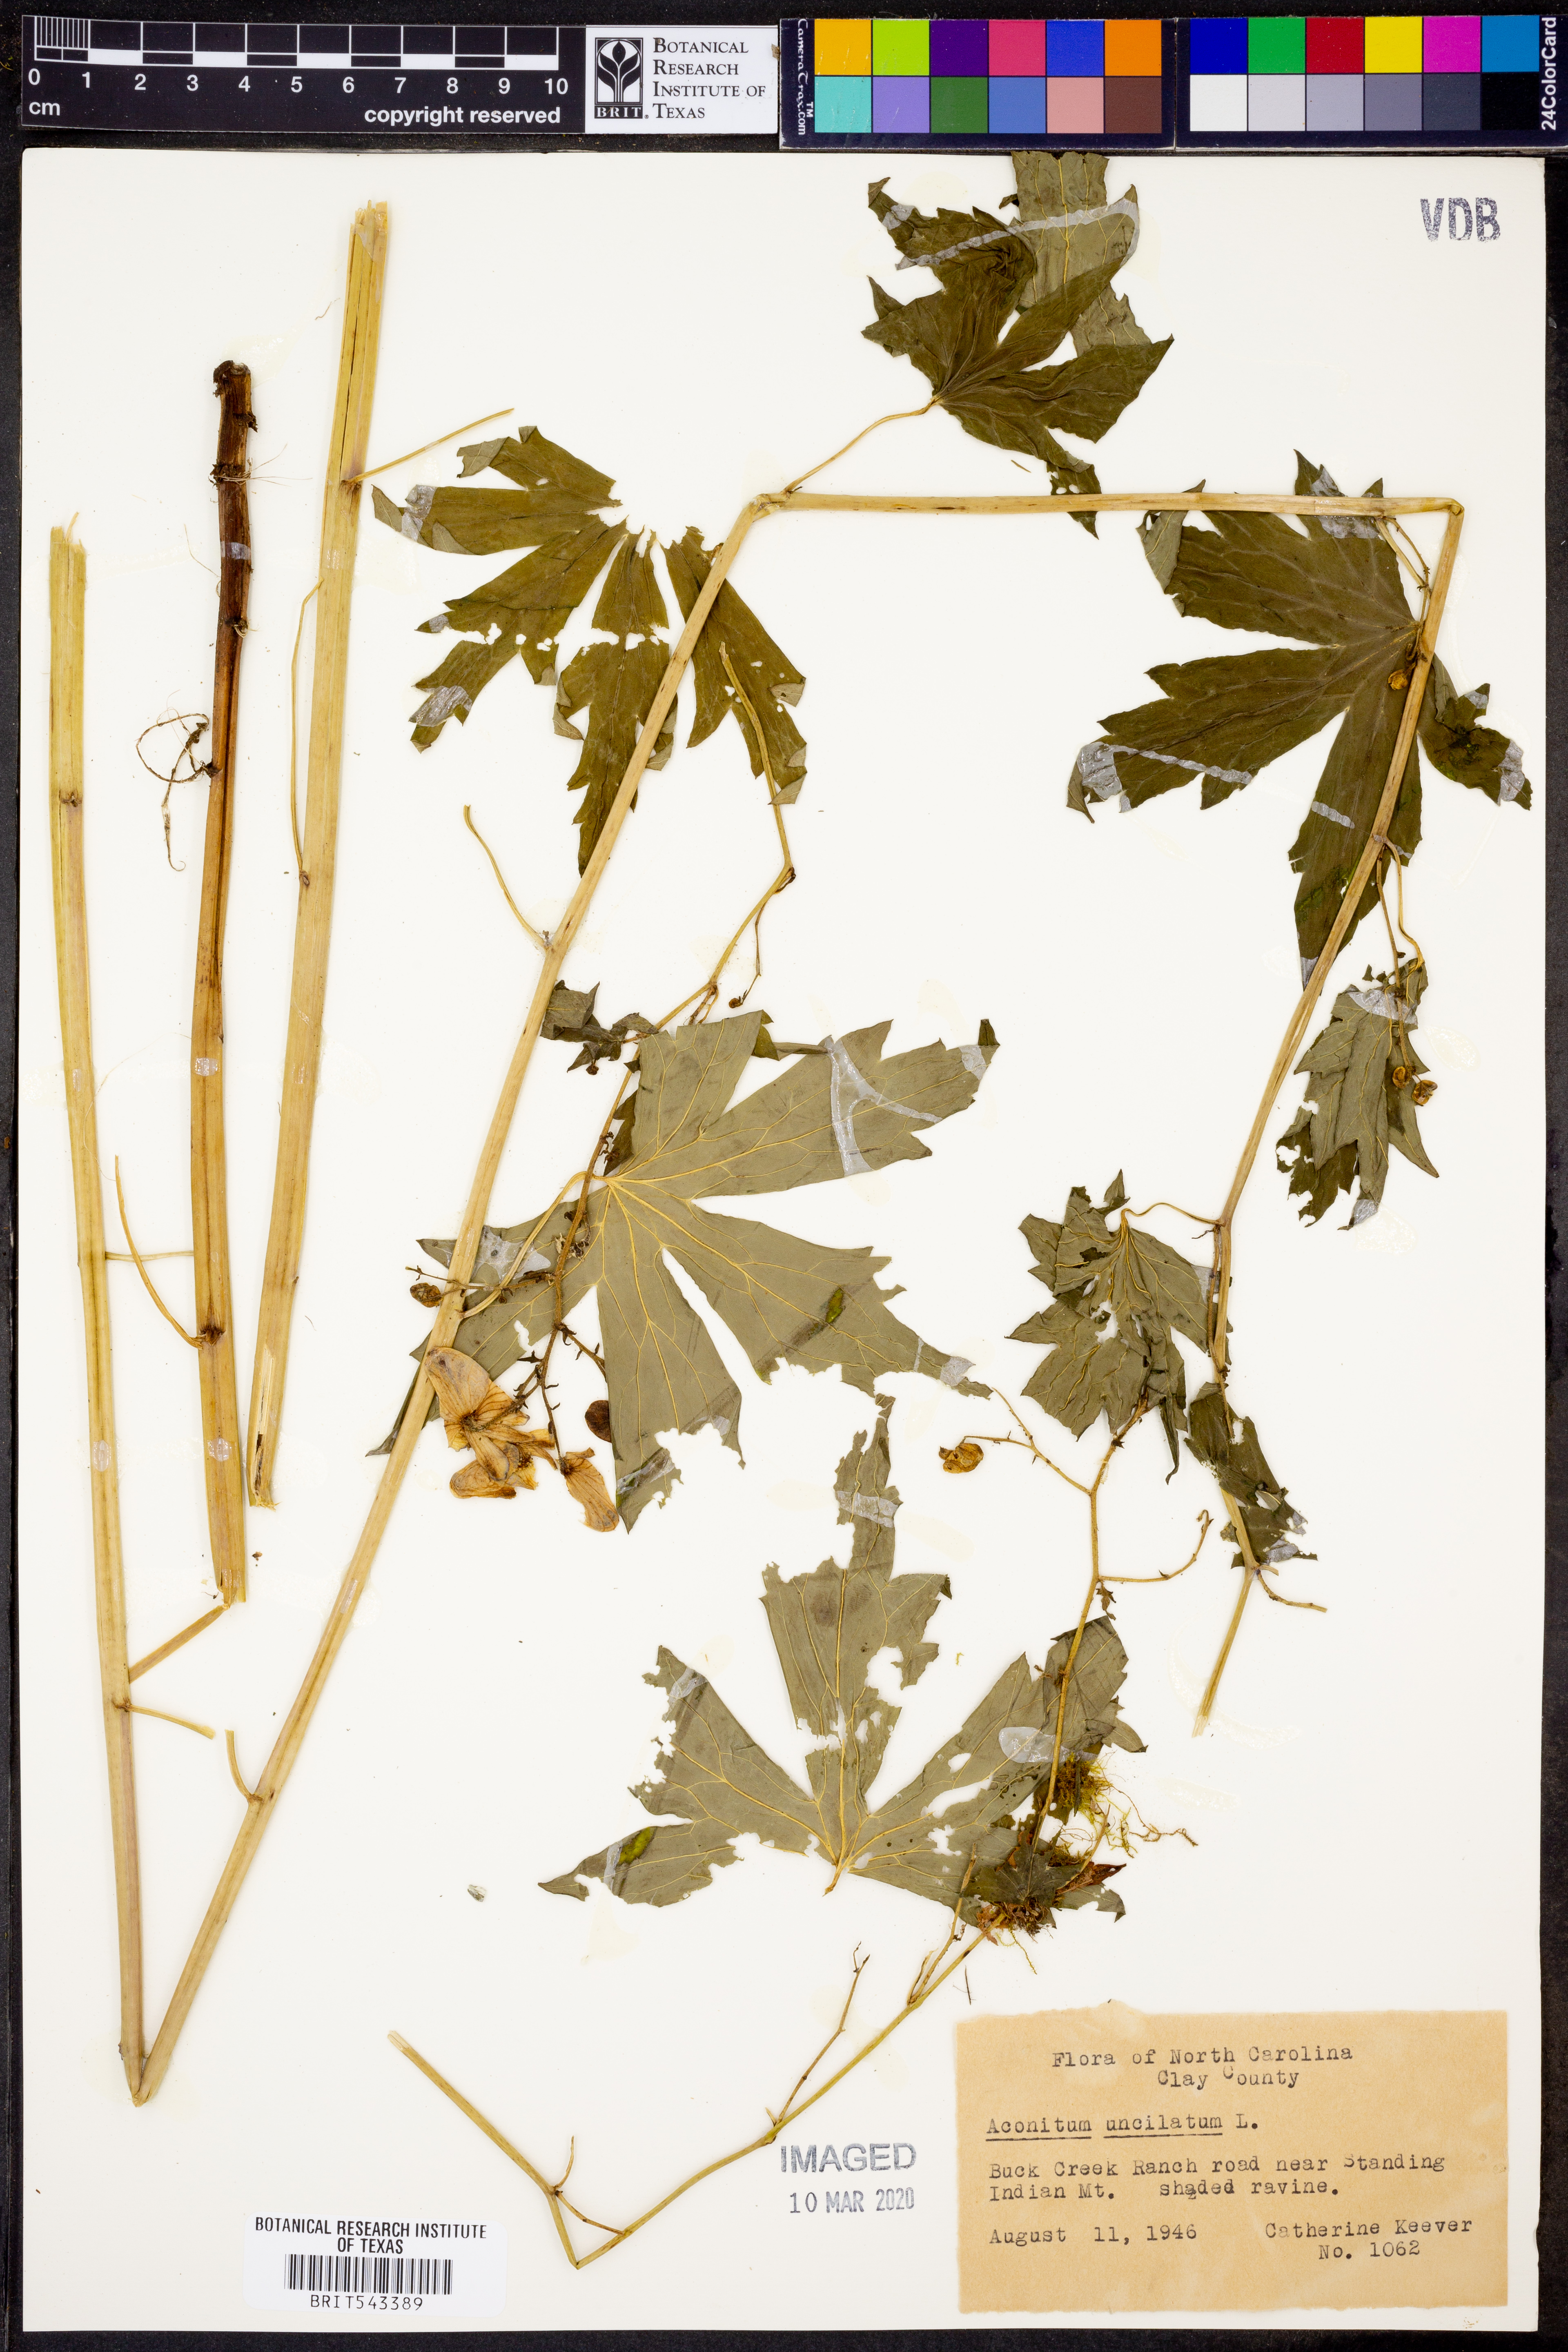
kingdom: Plantae
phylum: Tracheophyta
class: Magnoliopsida
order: Ranunculales
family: Ranunculaceae
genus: Aconitum
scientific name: Aconitum uncinatum
